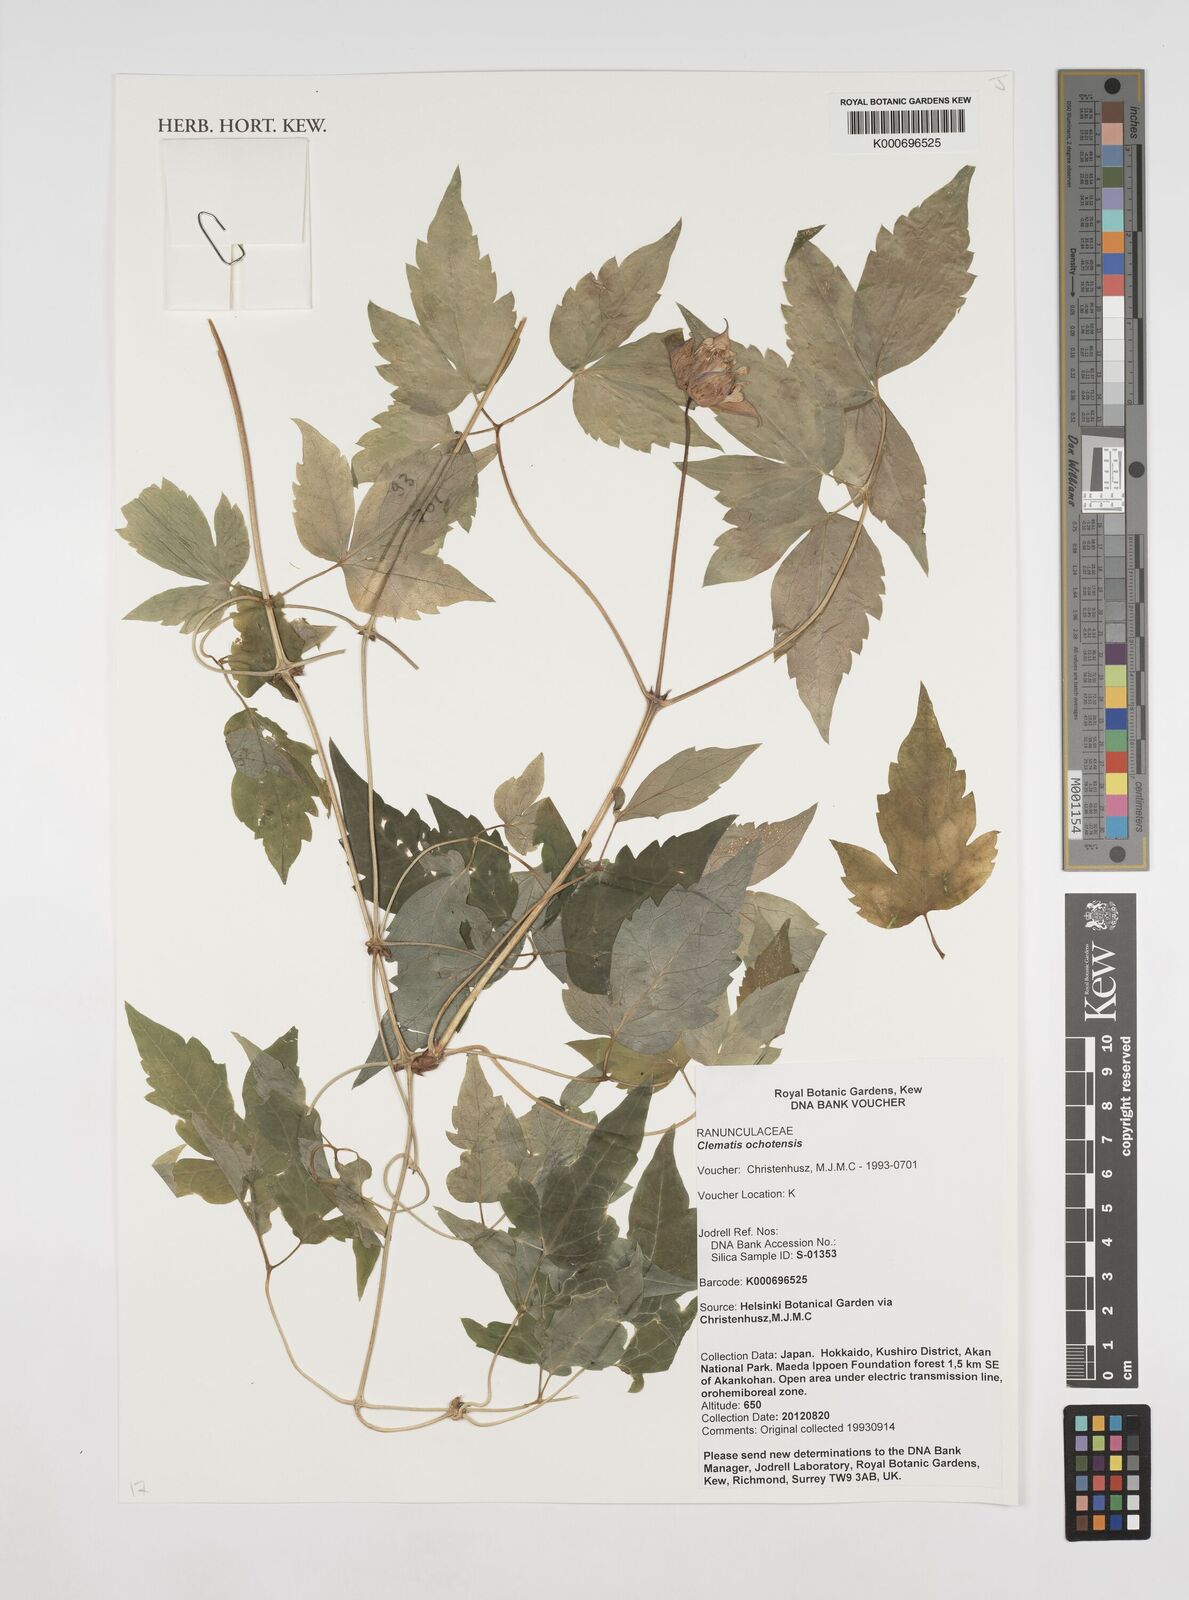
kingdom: Plantae
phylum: Tracheophyta
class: Magnoliopsida
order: Ranunculales
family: Ranunculaceae
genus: Clematis
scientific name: Clematis ochotensis
